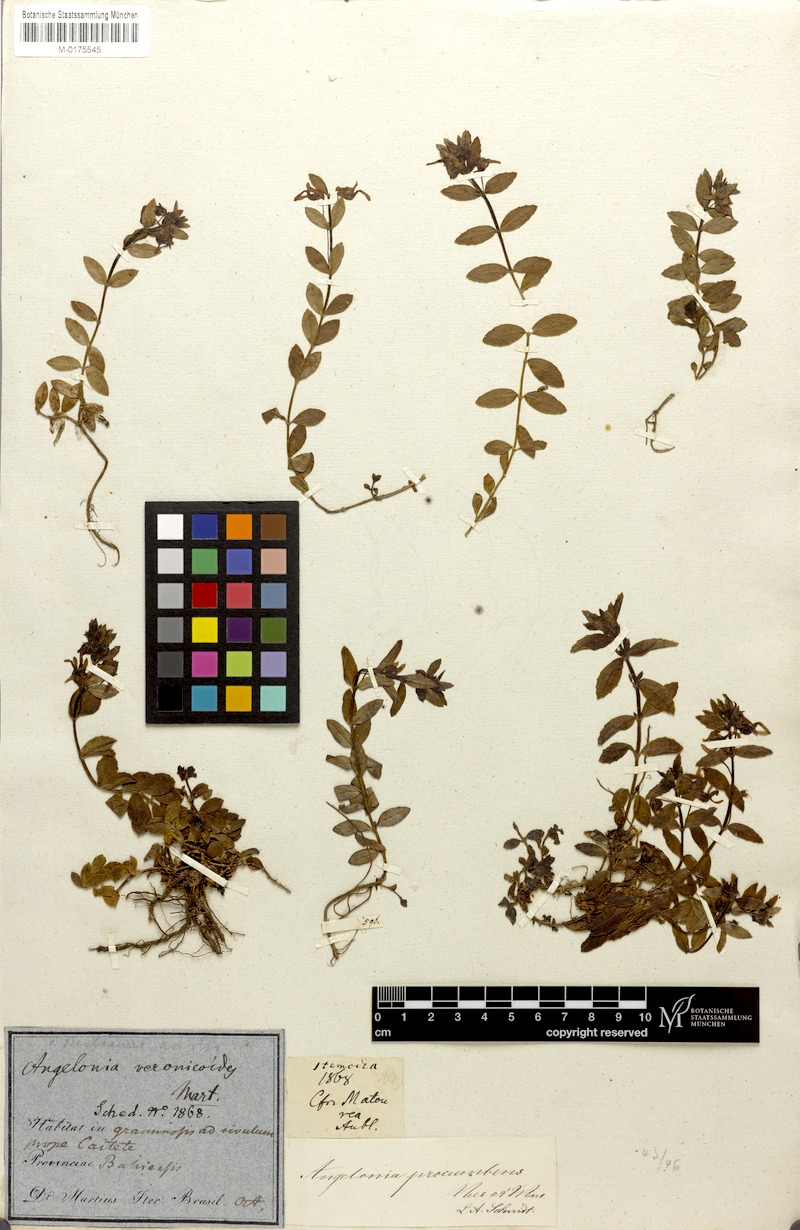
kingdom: Plantae
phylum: Tracheophyta
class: Magnoliopsida
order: Lamiales
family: Plantaginaceae
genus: Angelonia
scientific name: Angelonia procumbens
